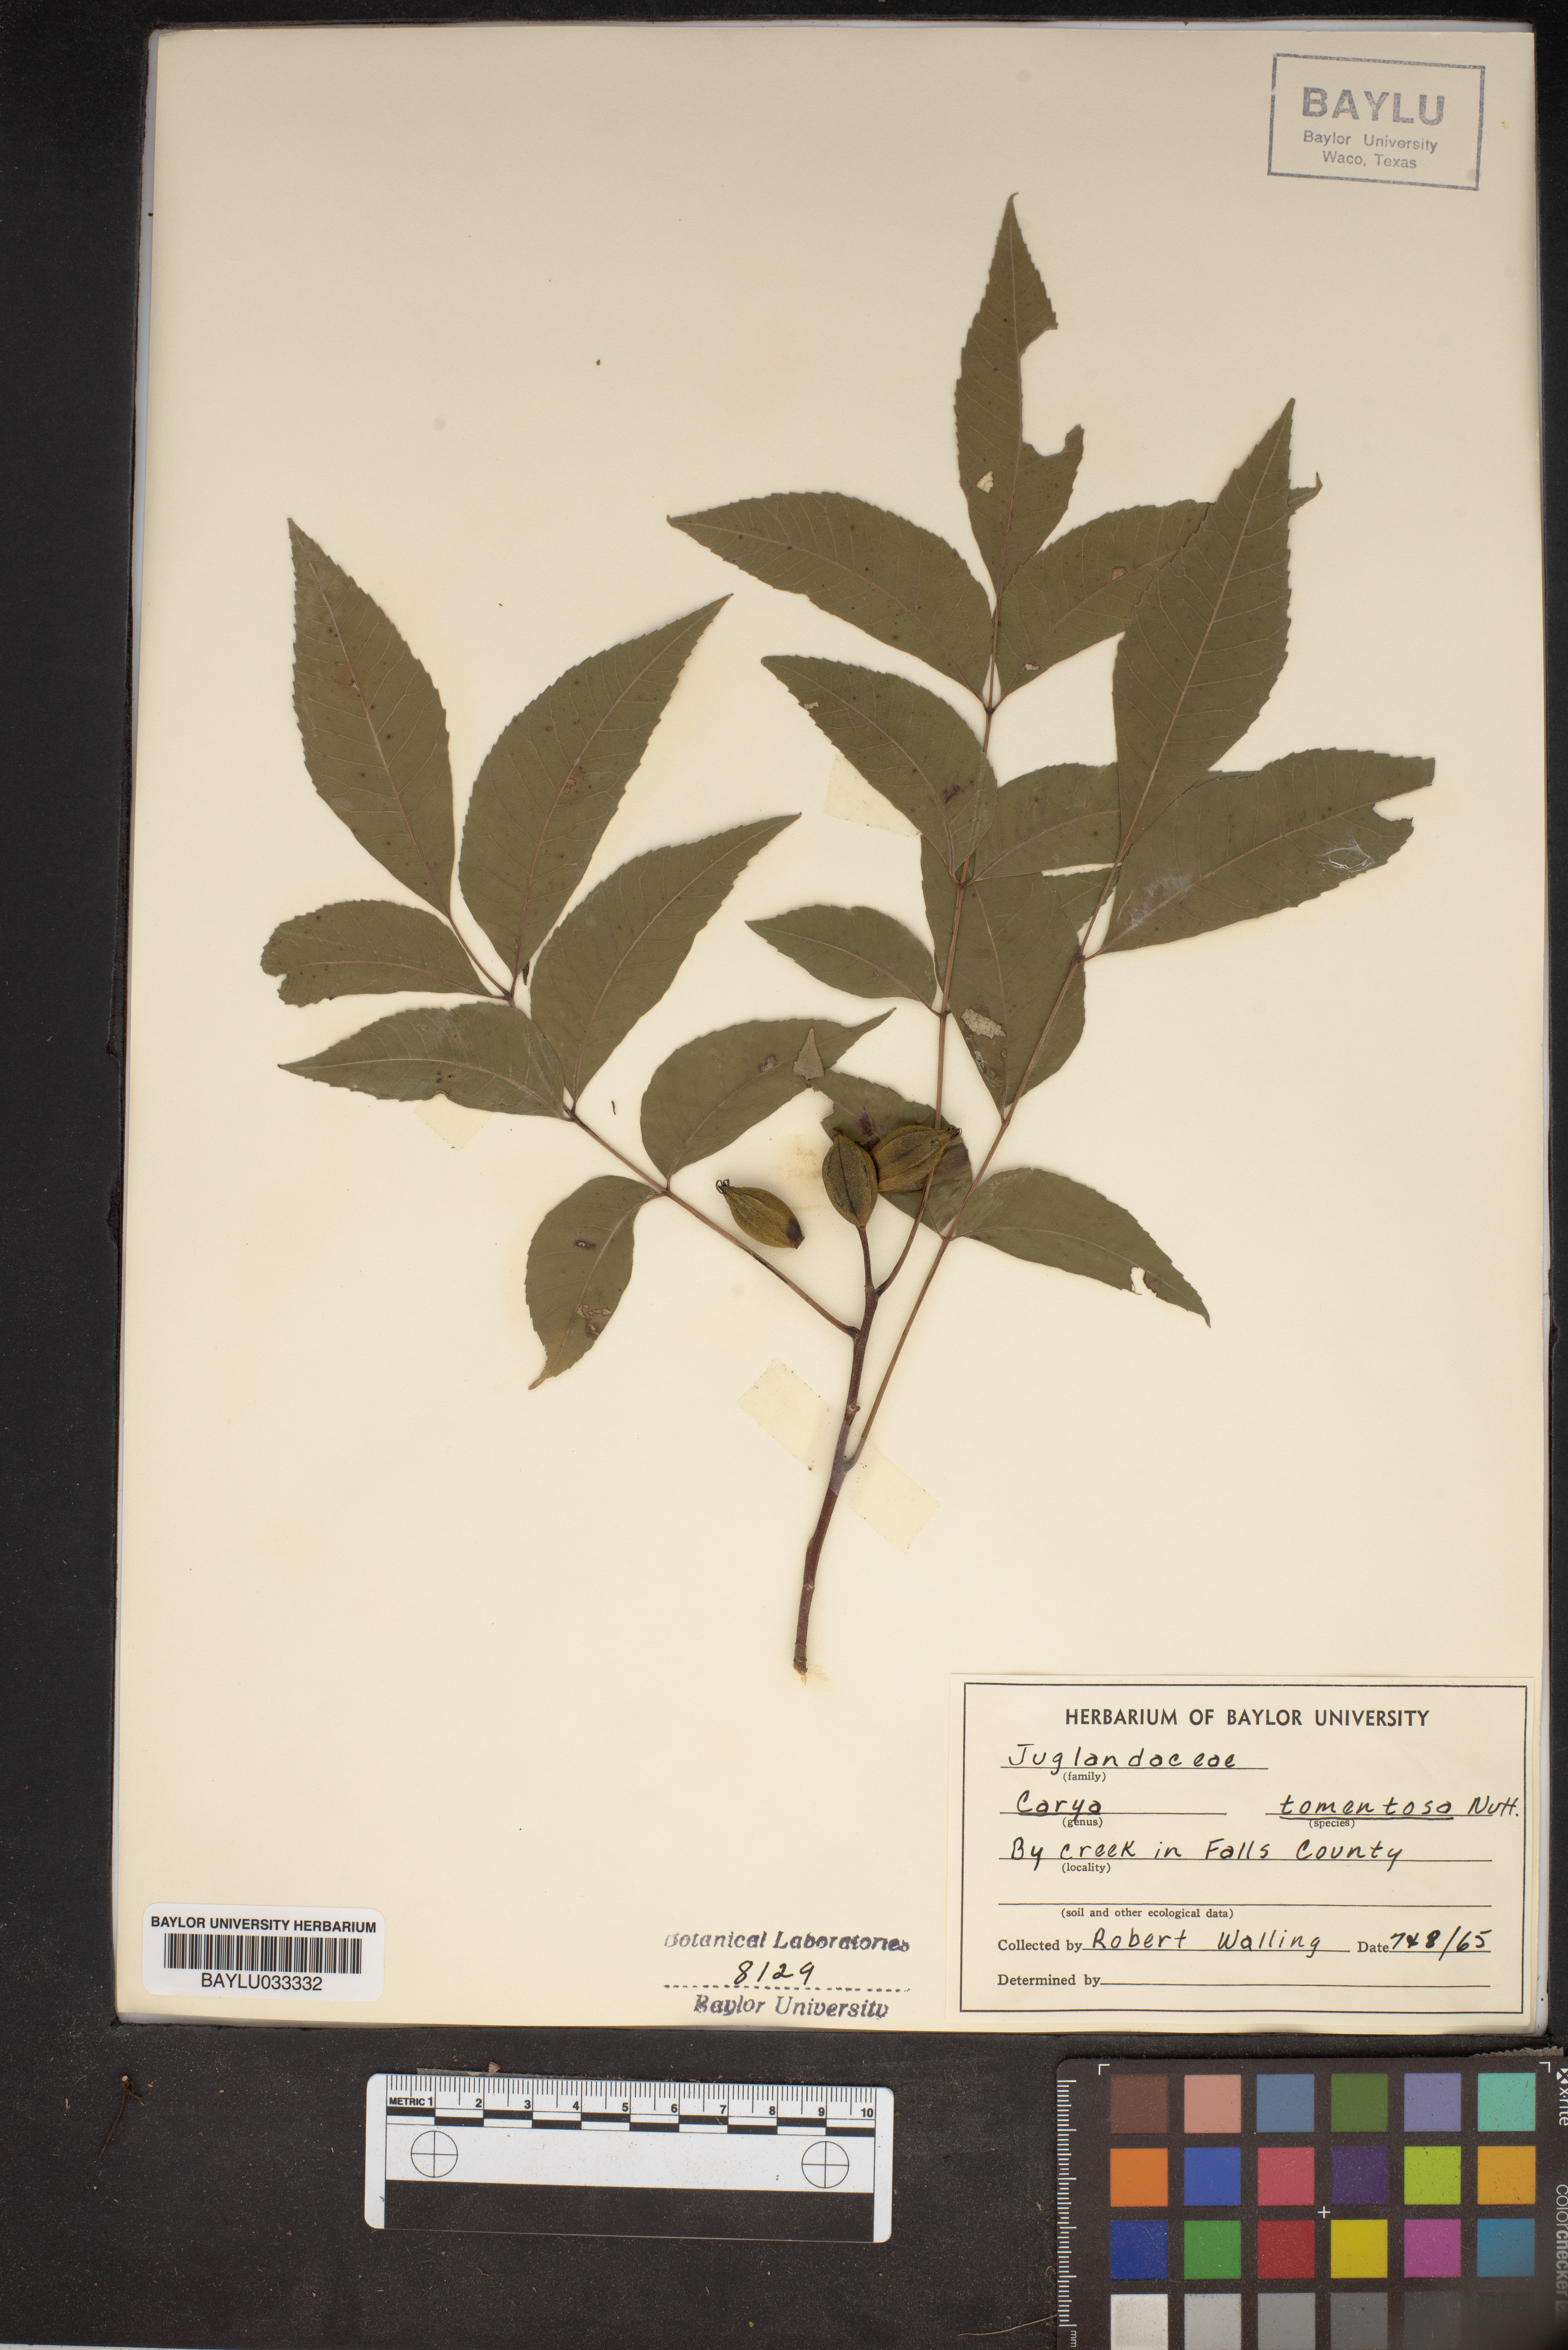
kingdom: Plantae
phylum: Tracheophyta
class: Magnoliopsida
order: Fagales
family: Juglandaceae
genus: Carya
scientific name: Carya alba
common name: Mockernut hickory
